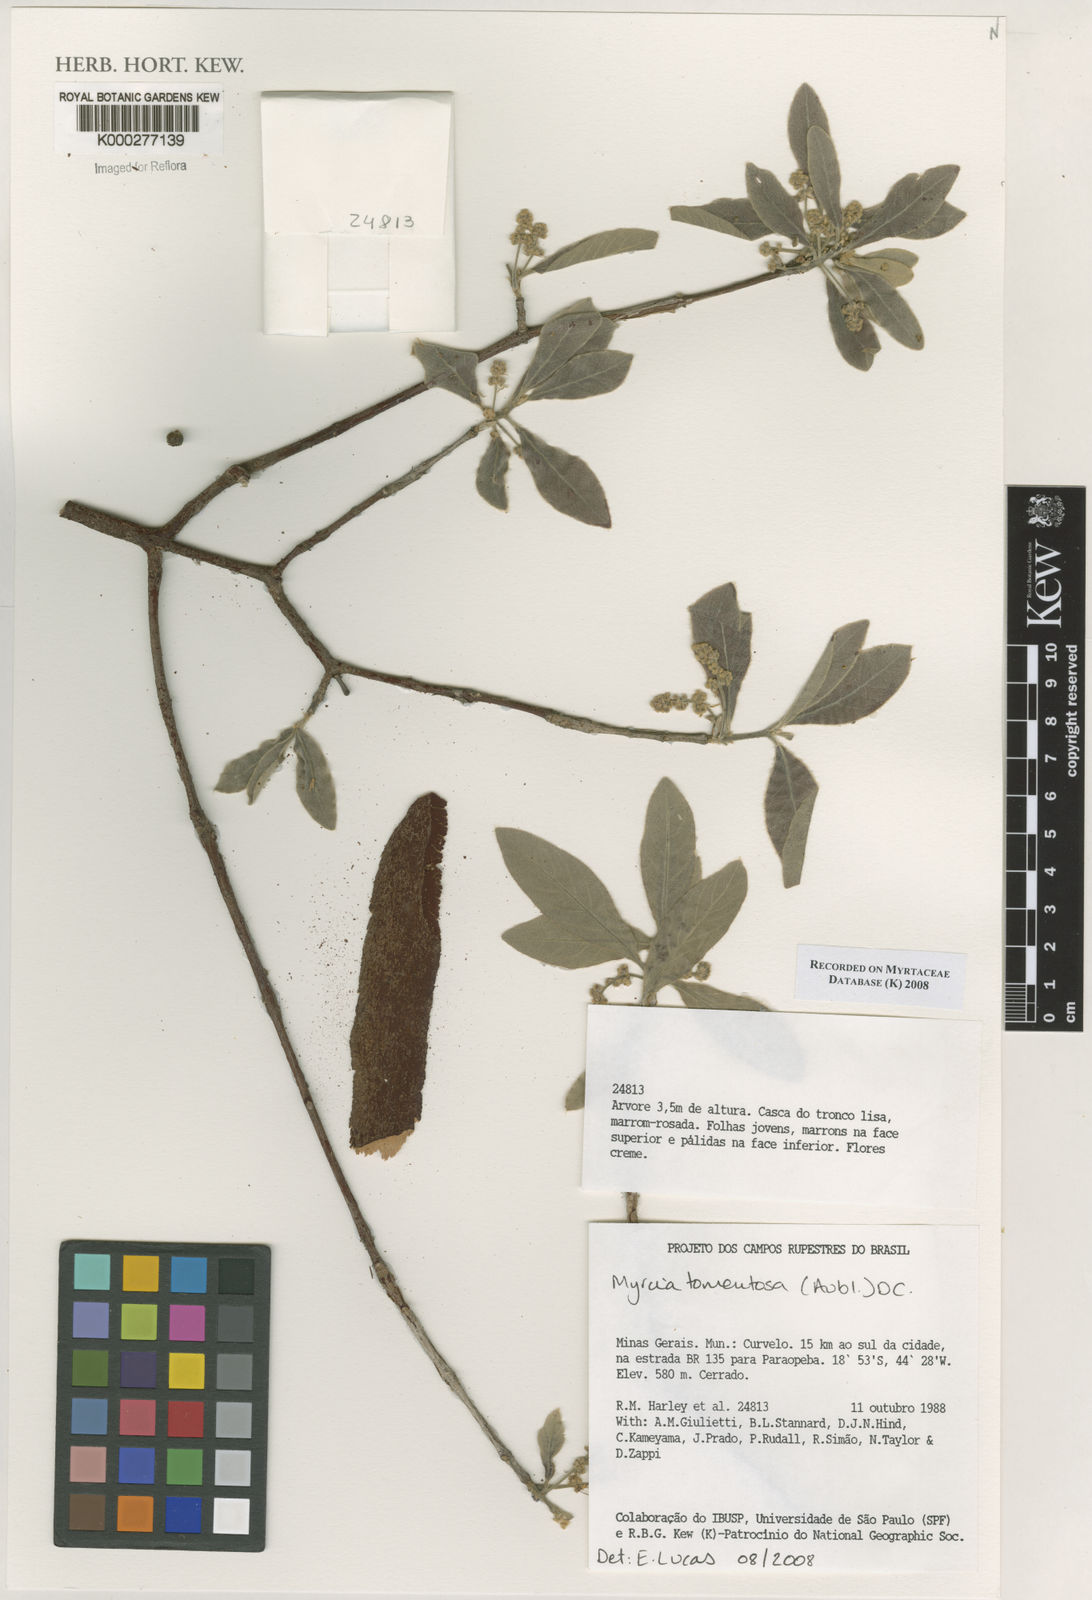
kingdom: Plantae
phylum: Tracheophyta
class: Magnoliopsida
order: Myrtales
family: Myrtaceae
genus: Myrcia
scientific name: Myrcia tomentosa
